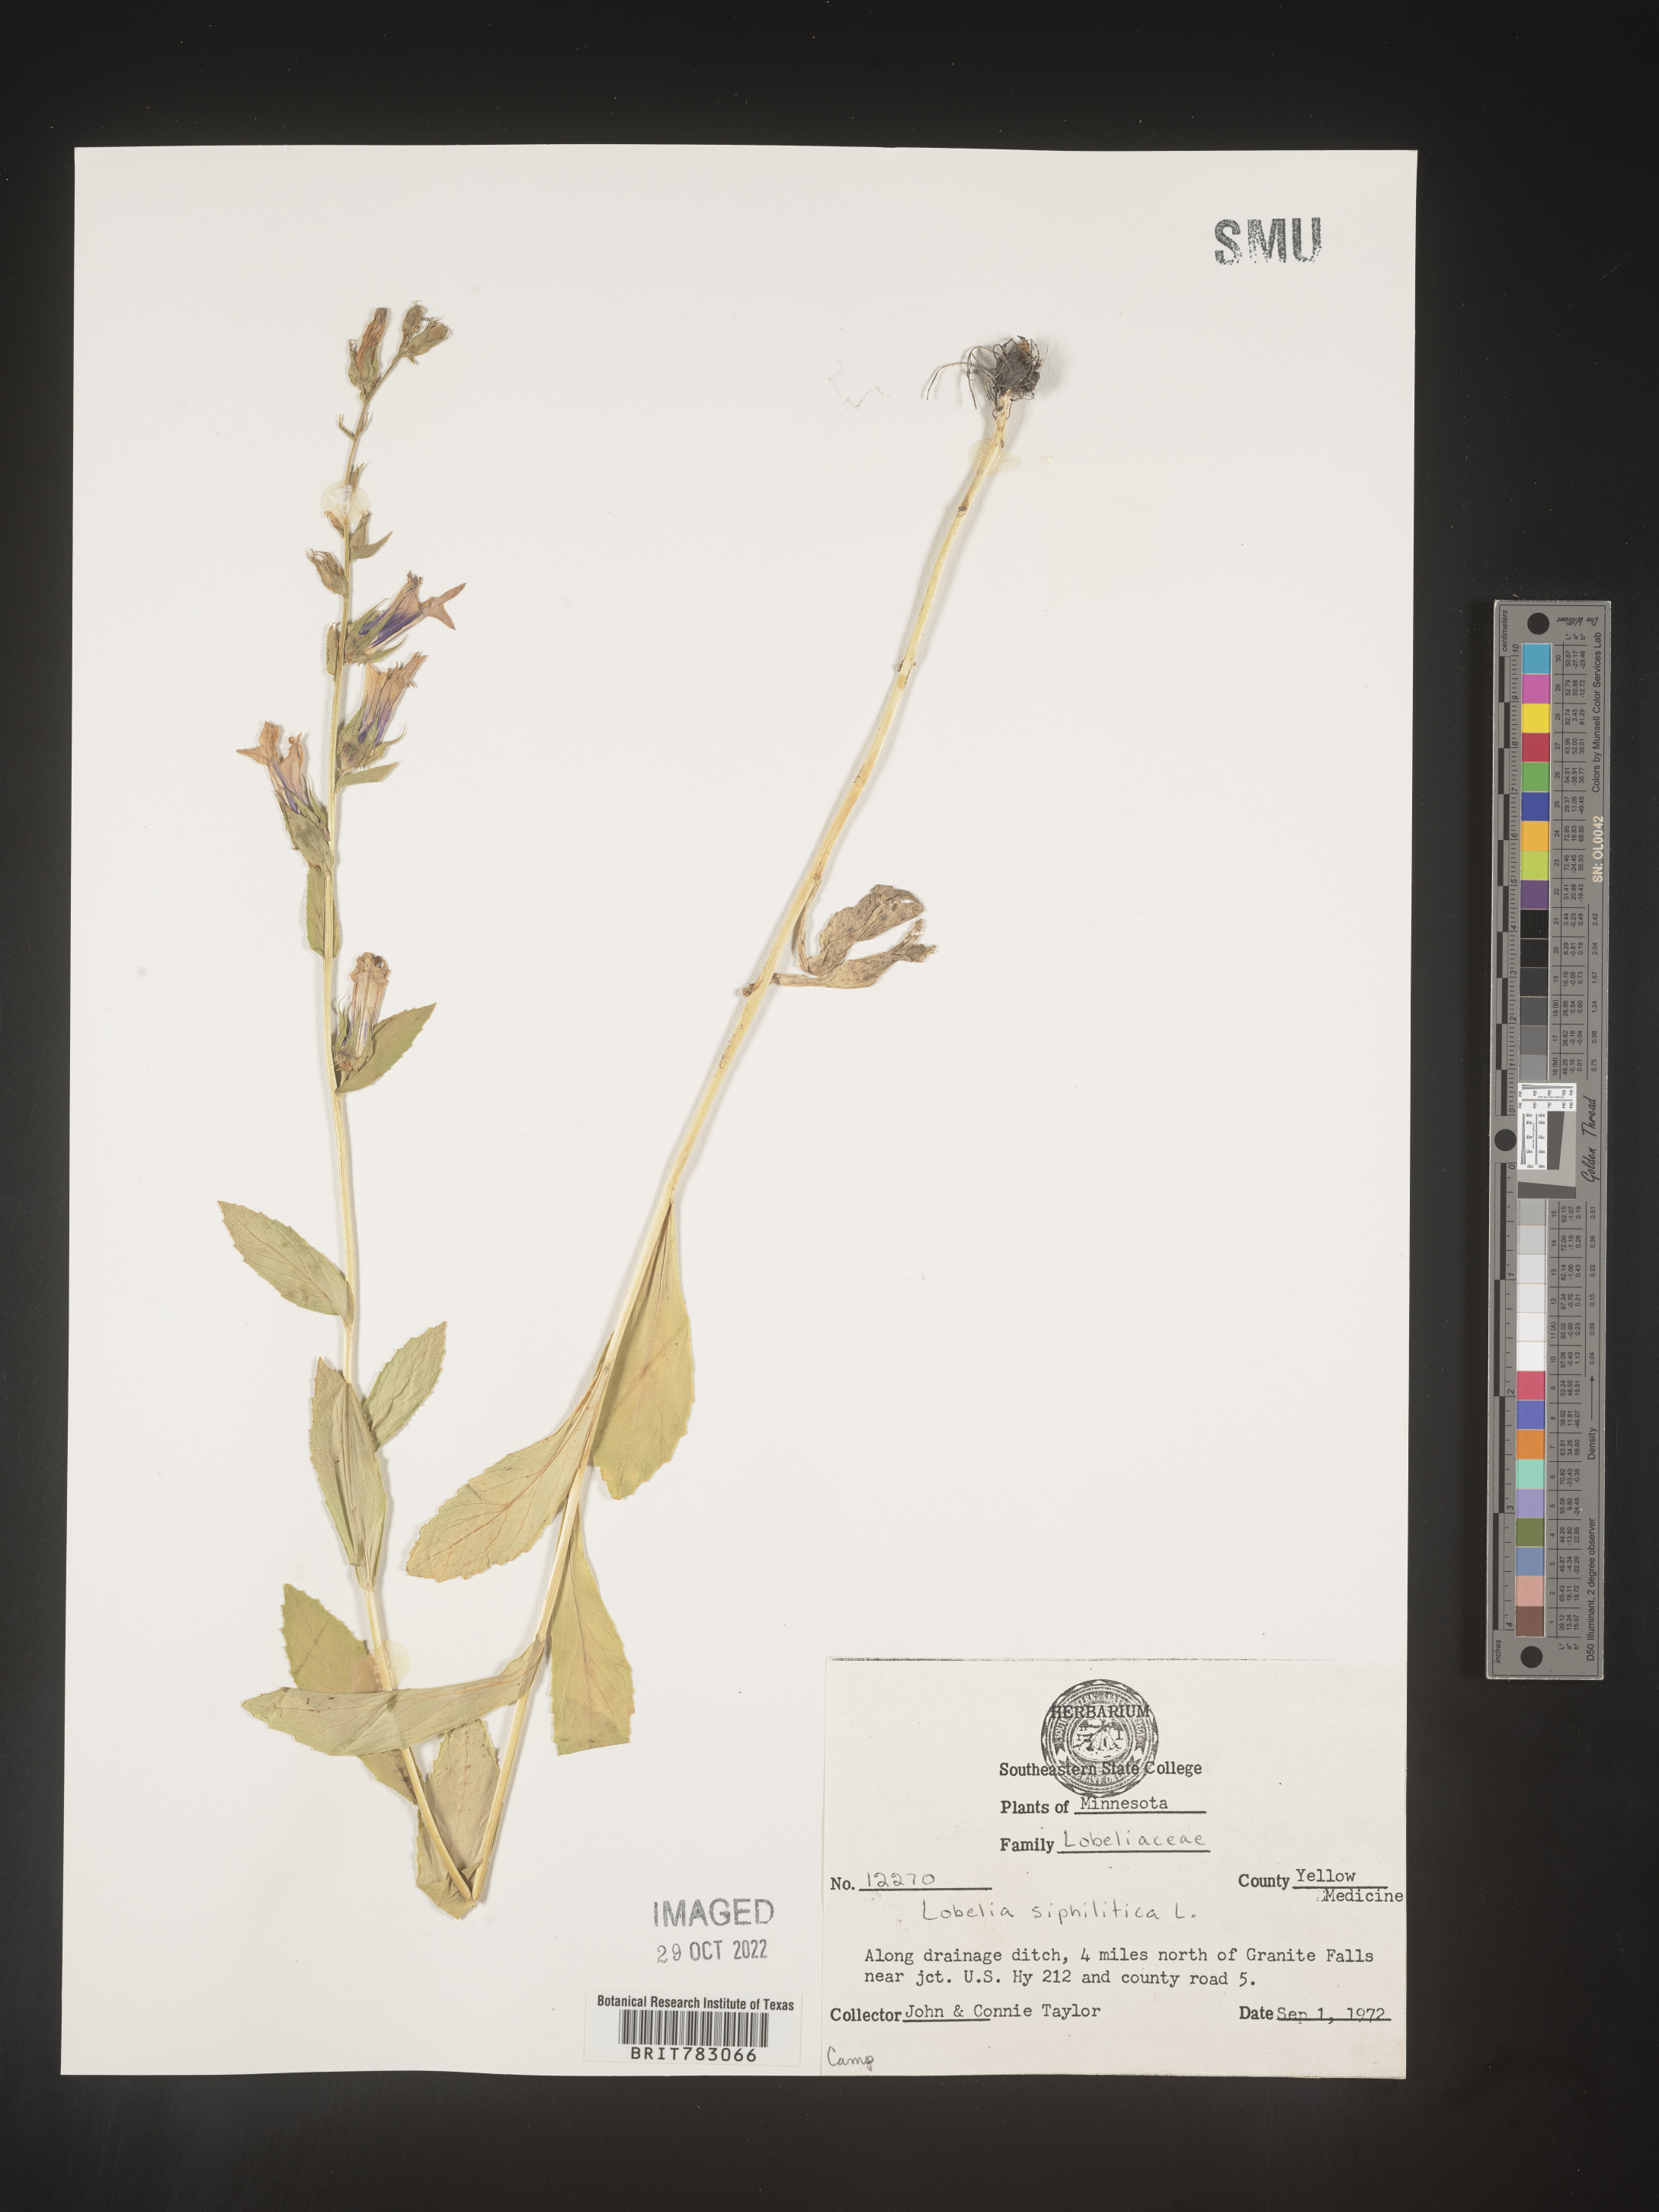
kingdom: Plantae
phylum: Tracheophyta
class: Magnoliopsida
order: Asterales
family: Campanulaceae
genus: Lobelia
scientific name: Lobelia siphilitica
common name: Great lobelia
